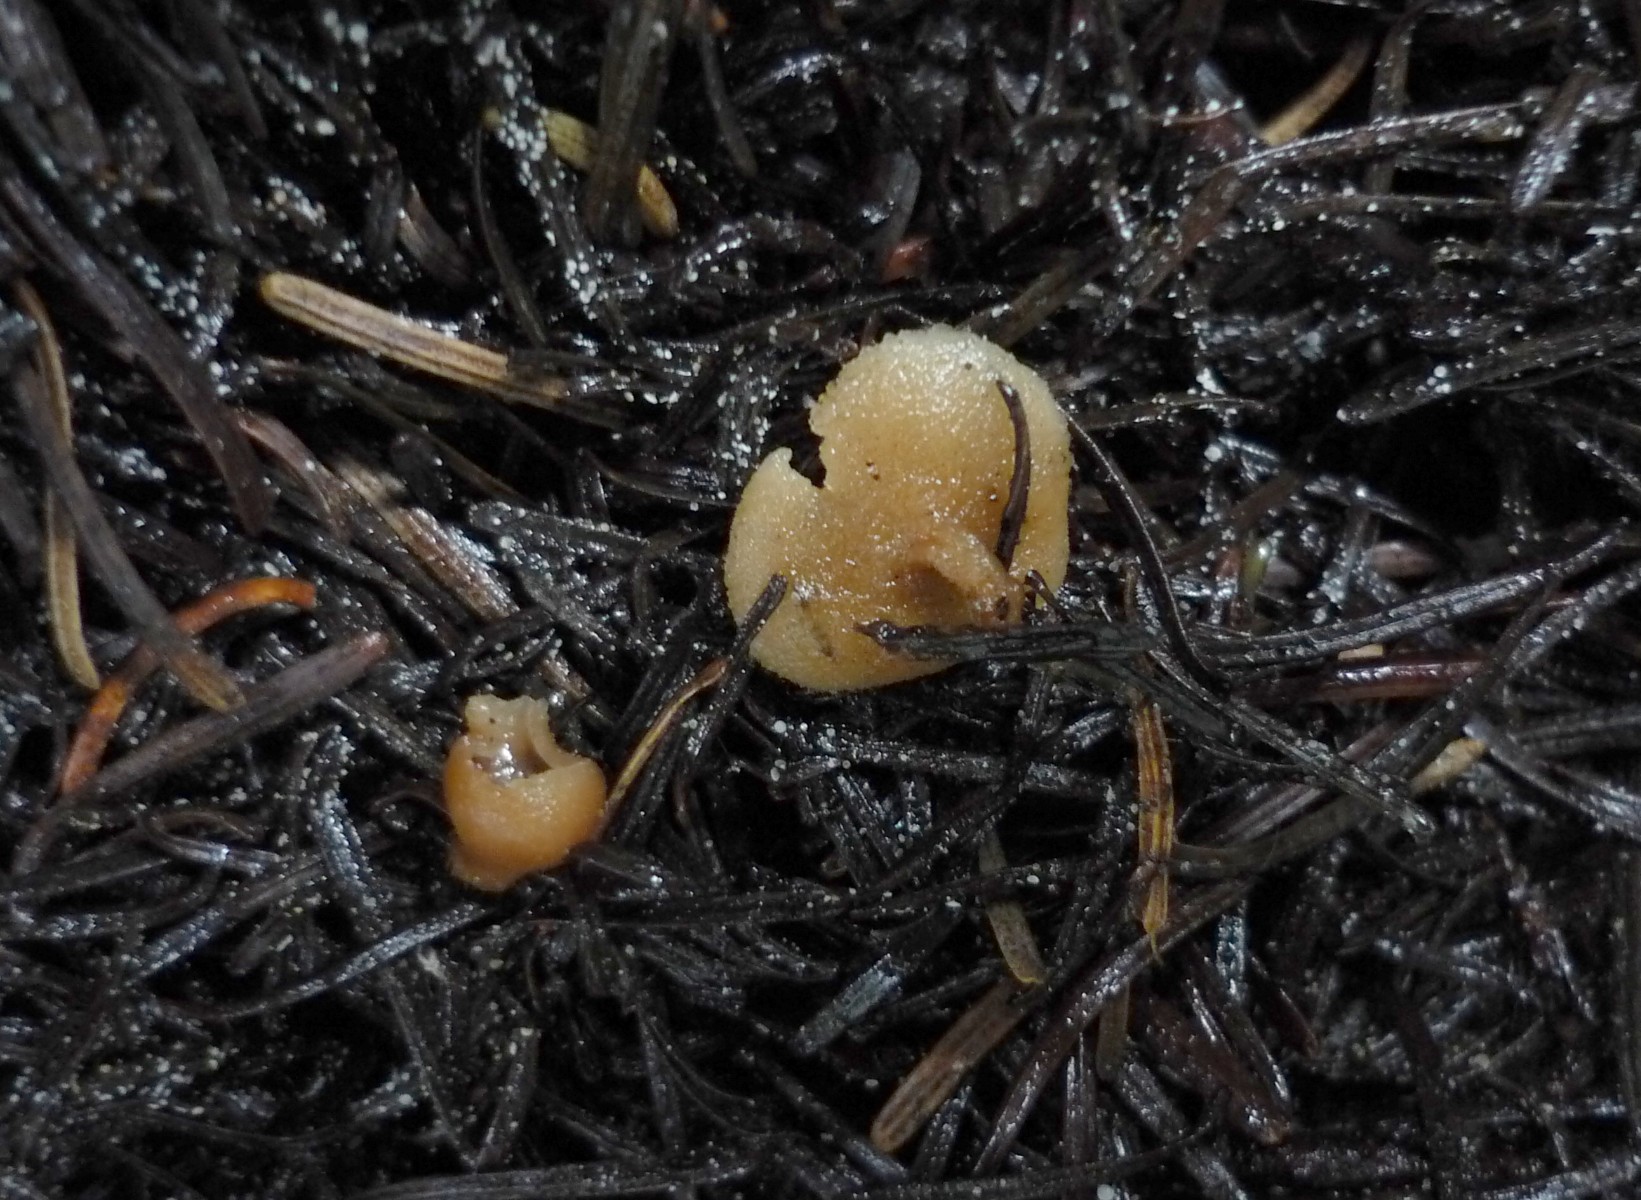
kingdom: Fungi
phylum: Ascomycota
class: Pezizomycetes
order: Pezizales
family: Pezizaceae
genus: Peziza
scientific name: Peziza fimeti
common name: møg-bægersvamp
